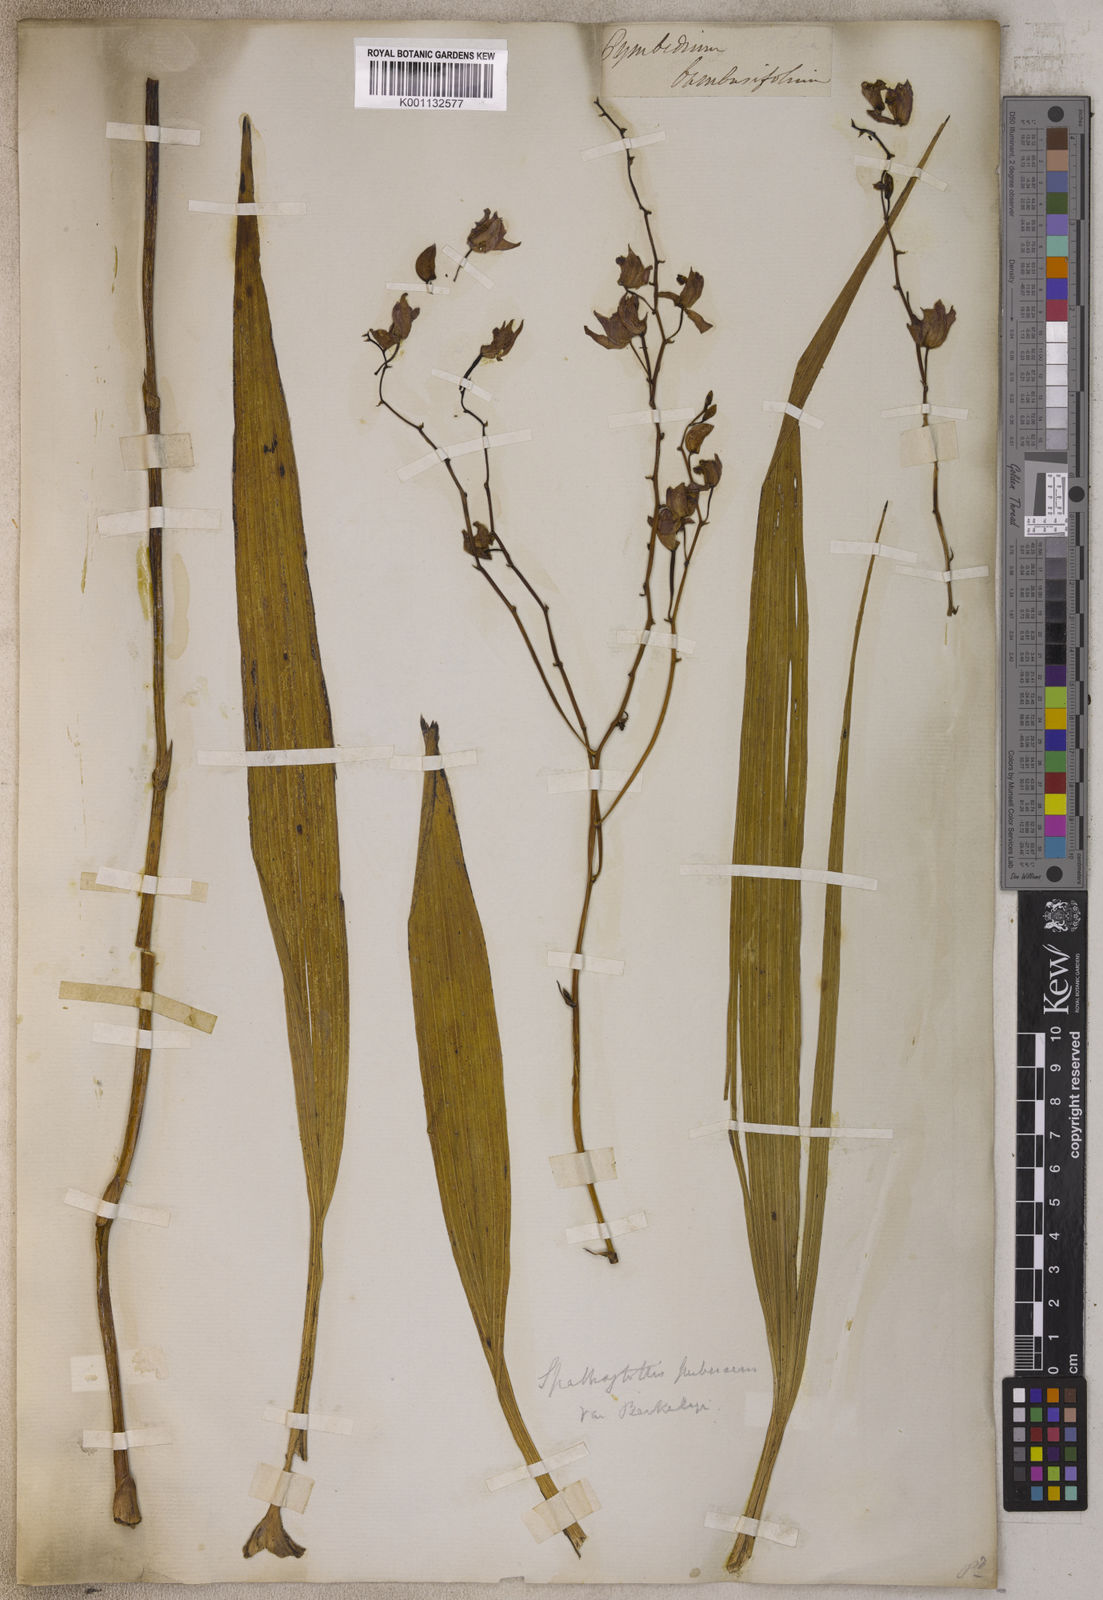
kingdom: Plantae
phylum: Tracheophyta
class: Liliopsida
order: Asparagales
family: Orchidaceae
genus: Cymbidium
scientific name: Cymbidium
